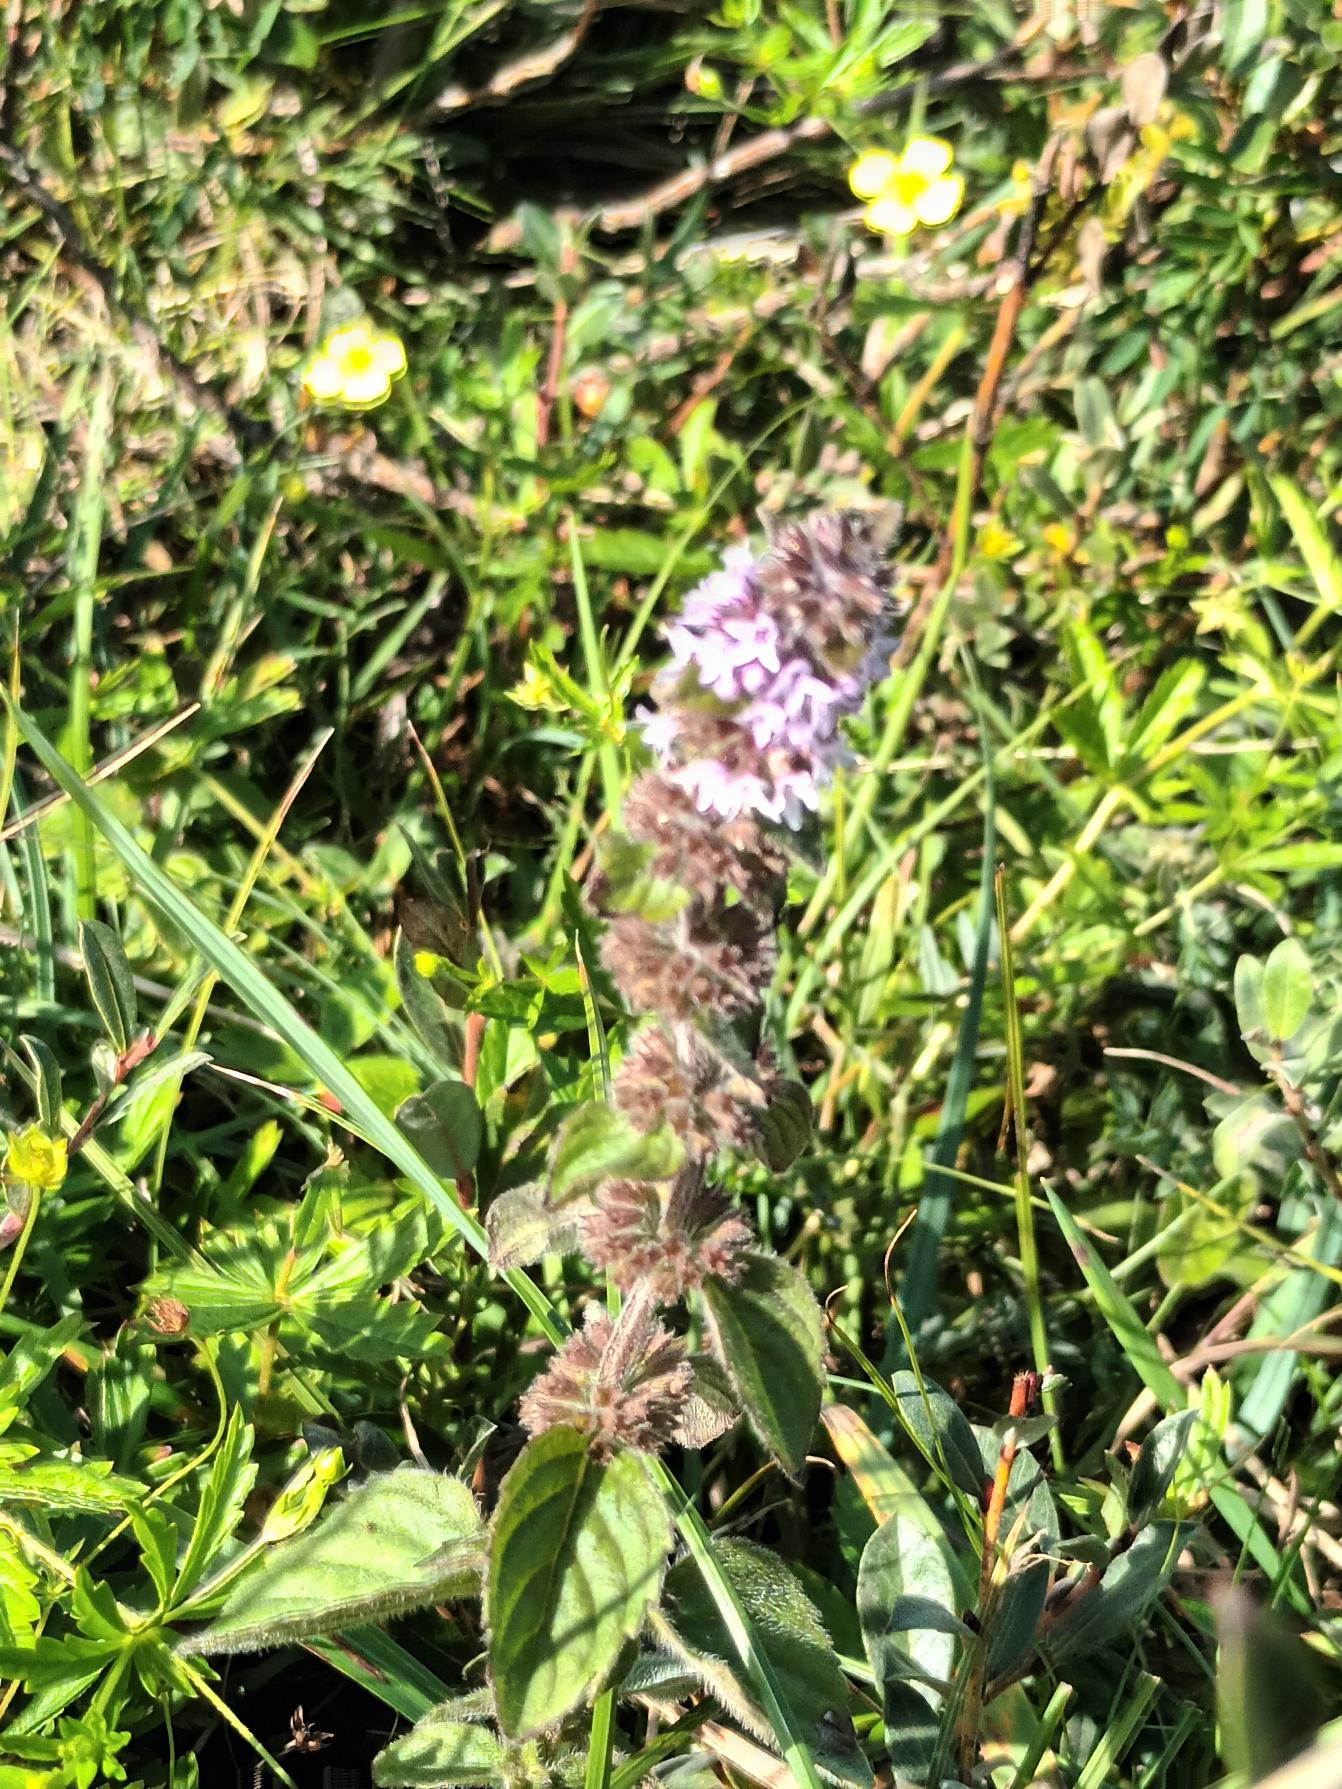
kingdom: Plantae
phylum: Tracheophyta
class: Magnoliopsida
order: Lamiales
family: Lamiaceae
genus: Mentha
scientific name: Mentha verticillata
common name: Krans-mynte
